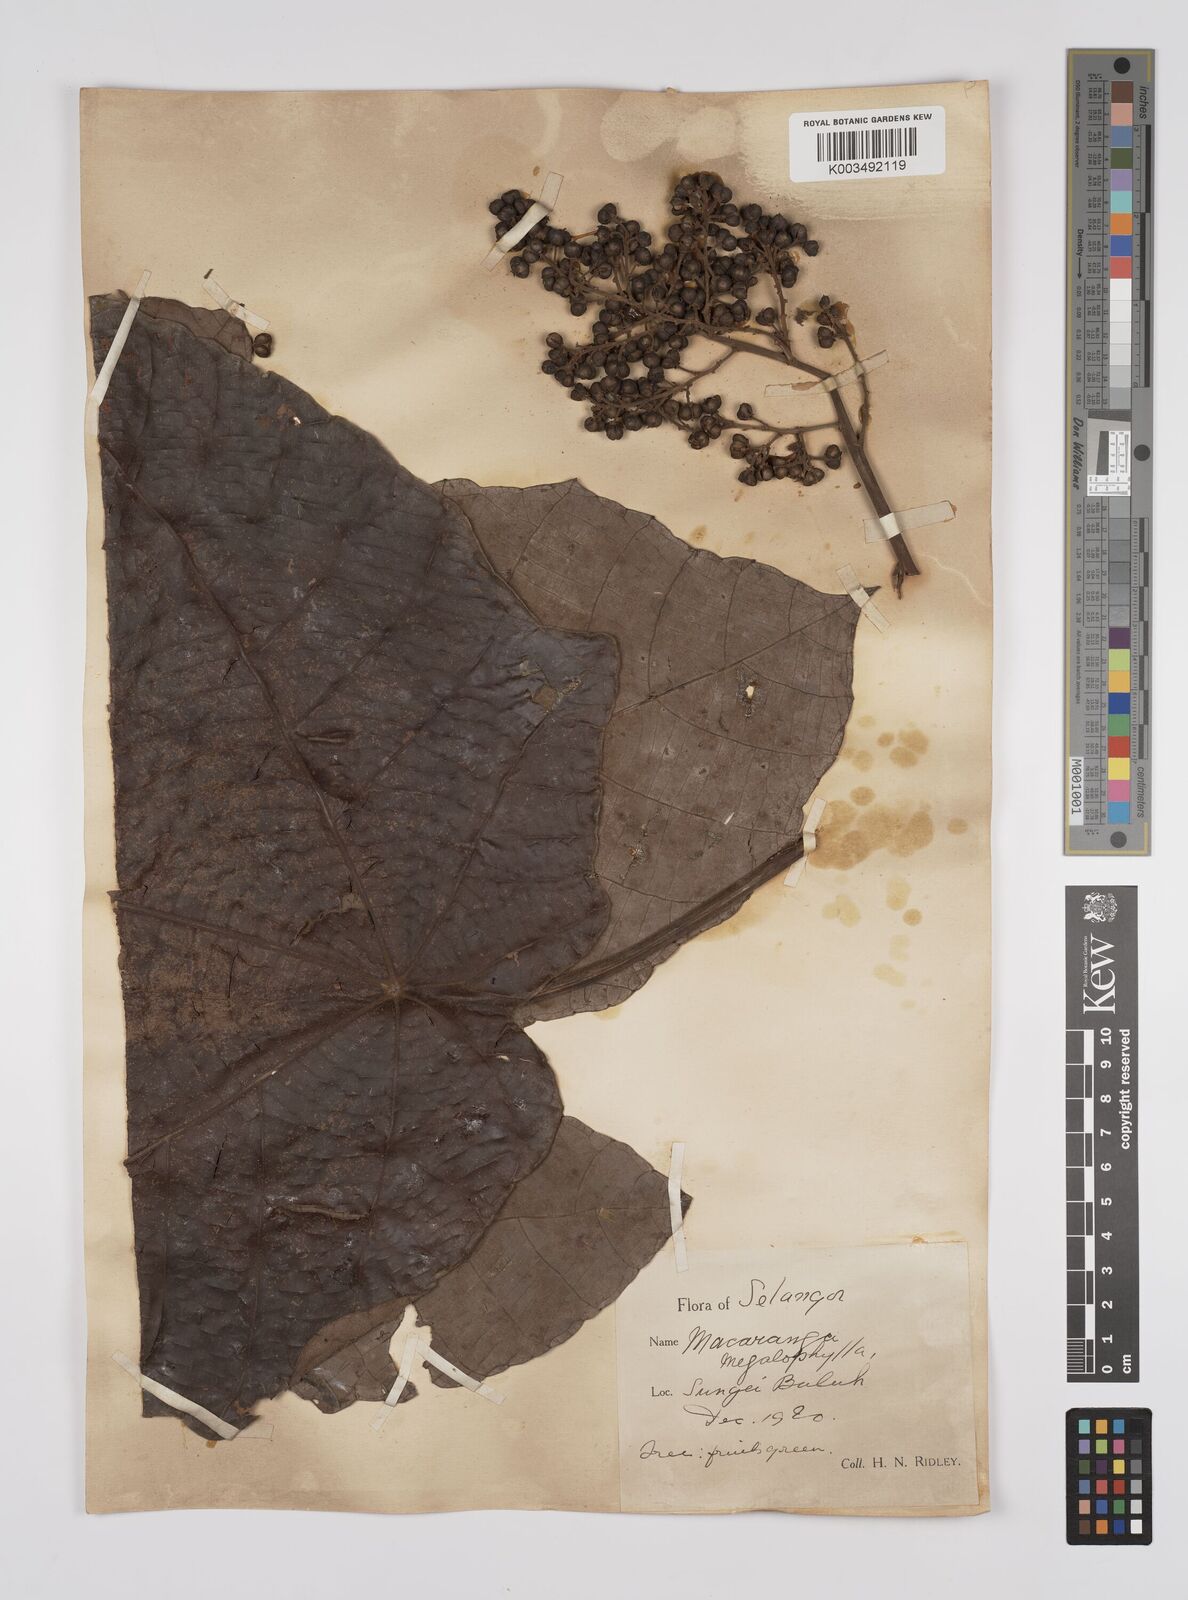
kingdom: Plantae
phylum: Tracheophyta
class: Magnoliopsida
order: Malpighiales
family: Euphorbiaceae
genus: Macaranga
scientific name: Macaranga gigantea
